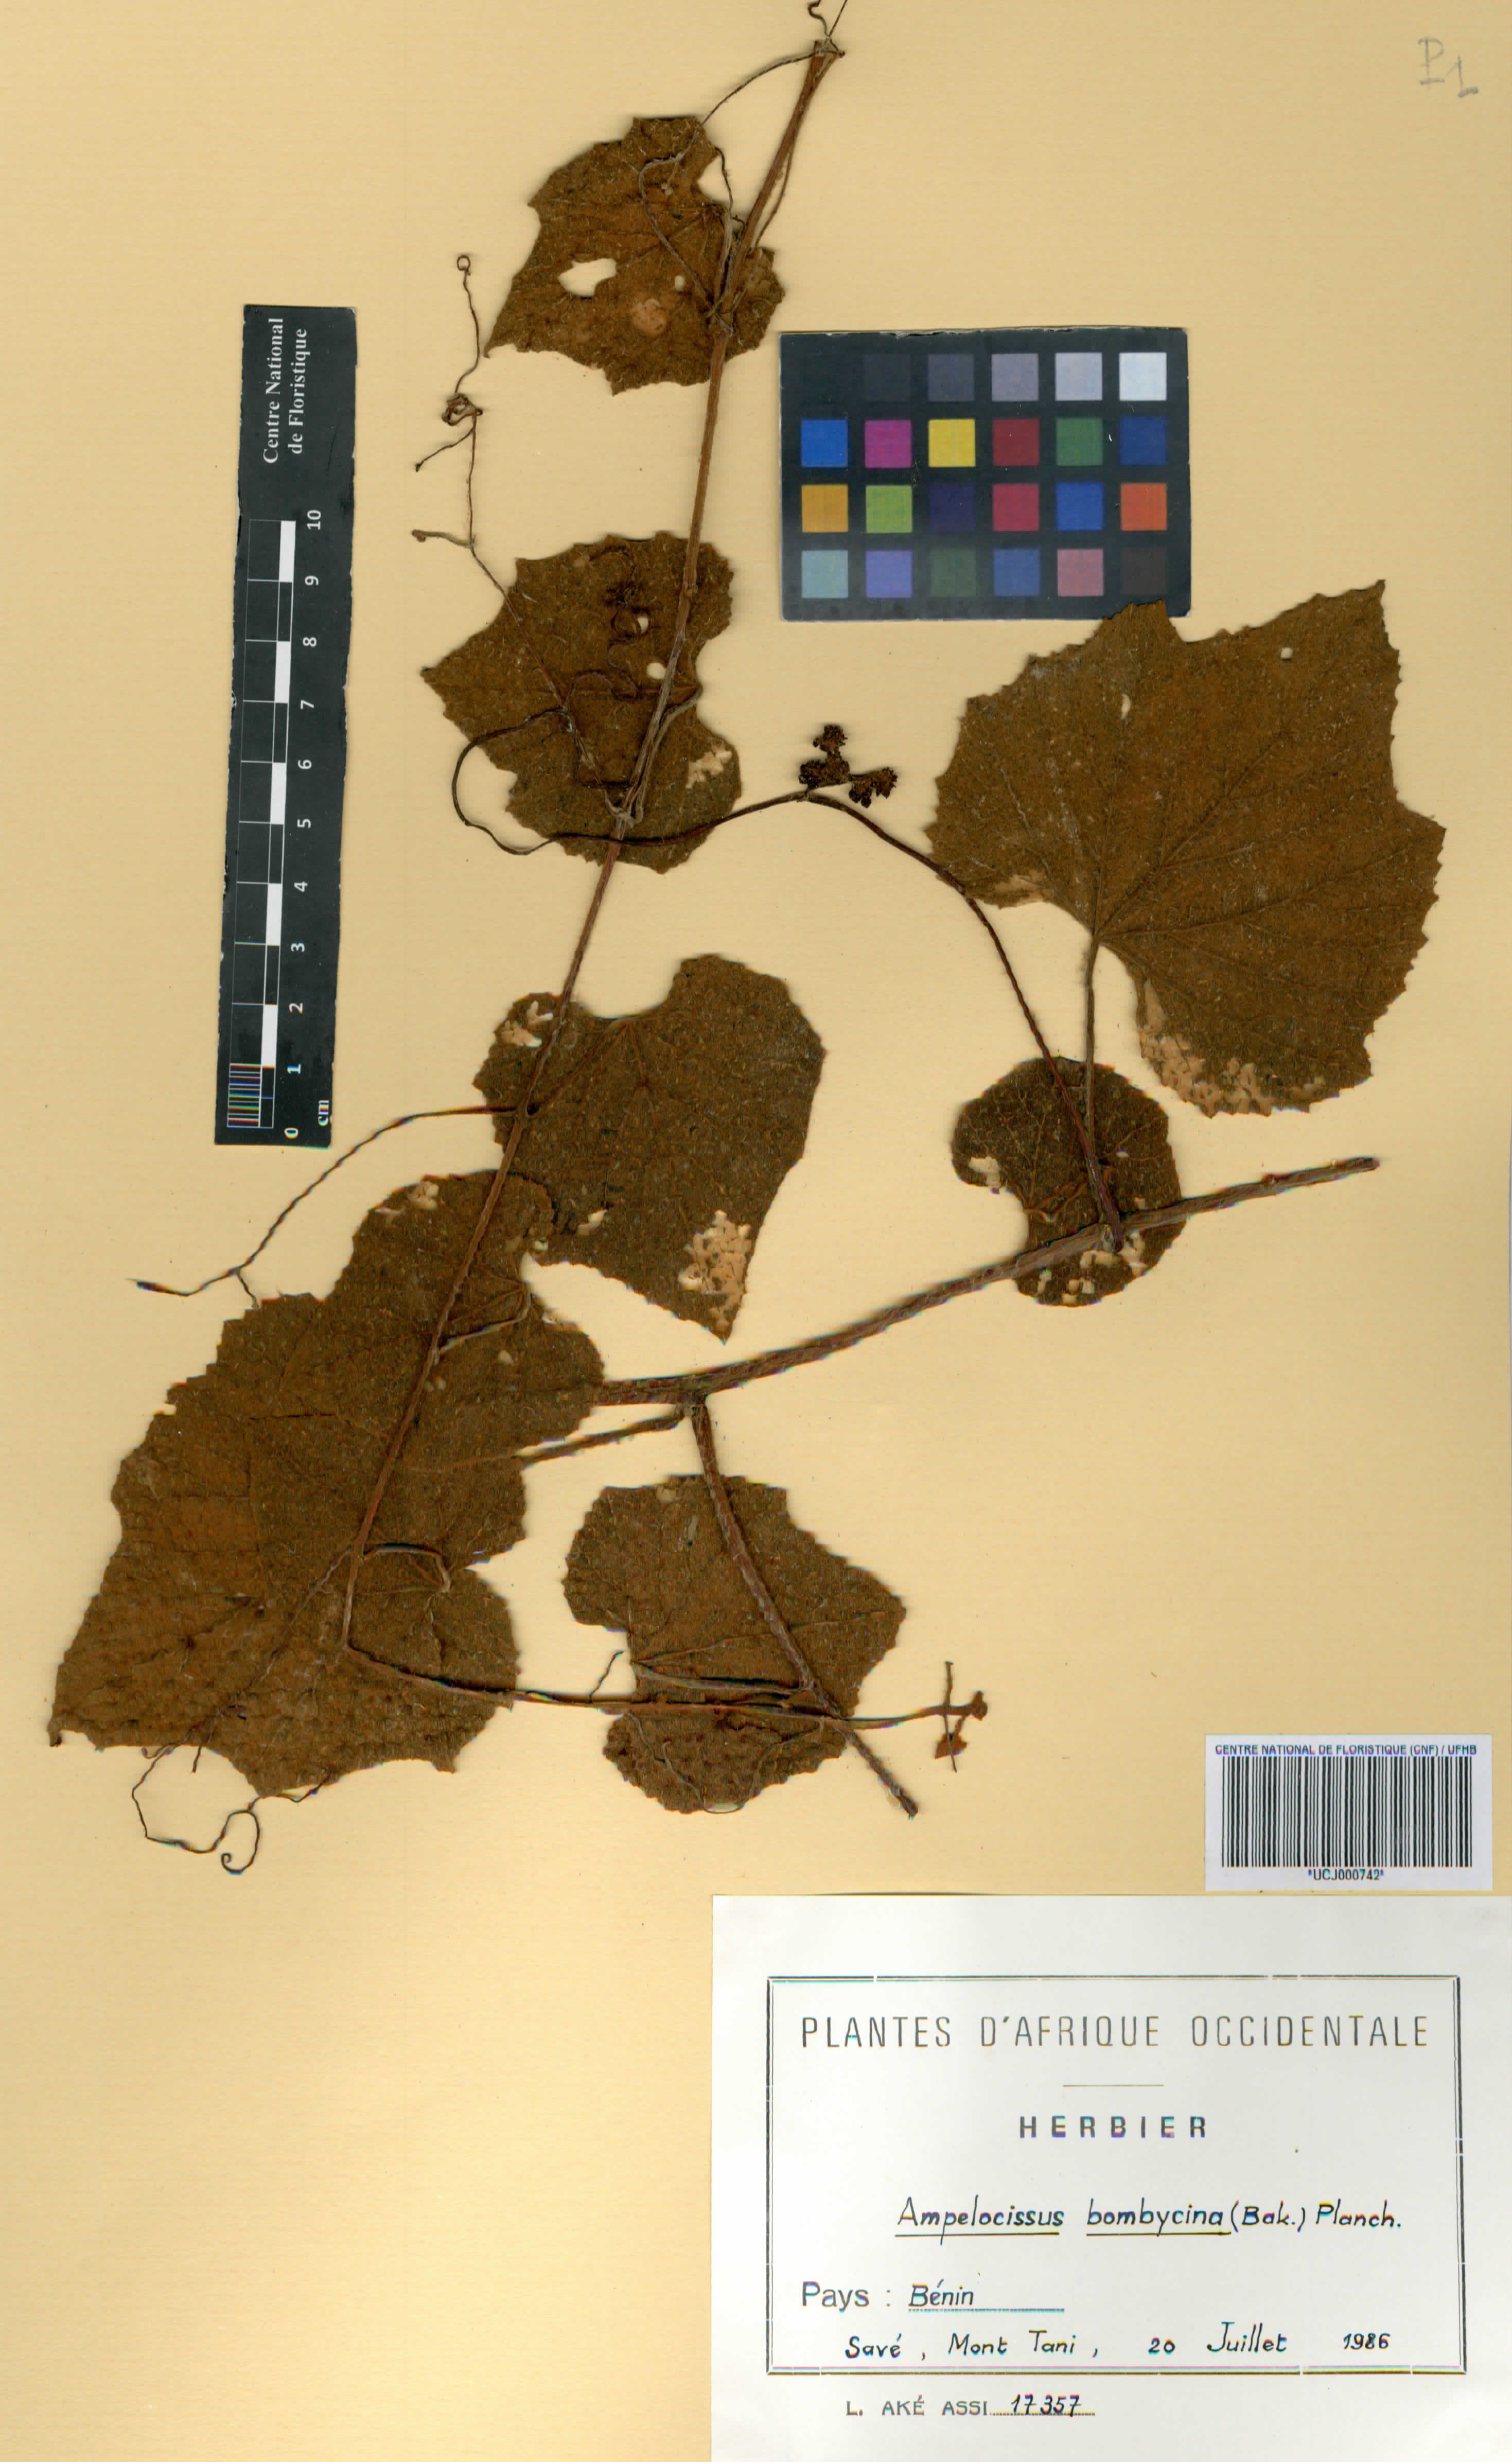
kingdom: Plantae
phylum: Tracheophyta
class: Magnoliopsida
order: Vitales
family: Vitaceae
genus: Ampelocissus
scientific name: Ampelocissus bombycina
